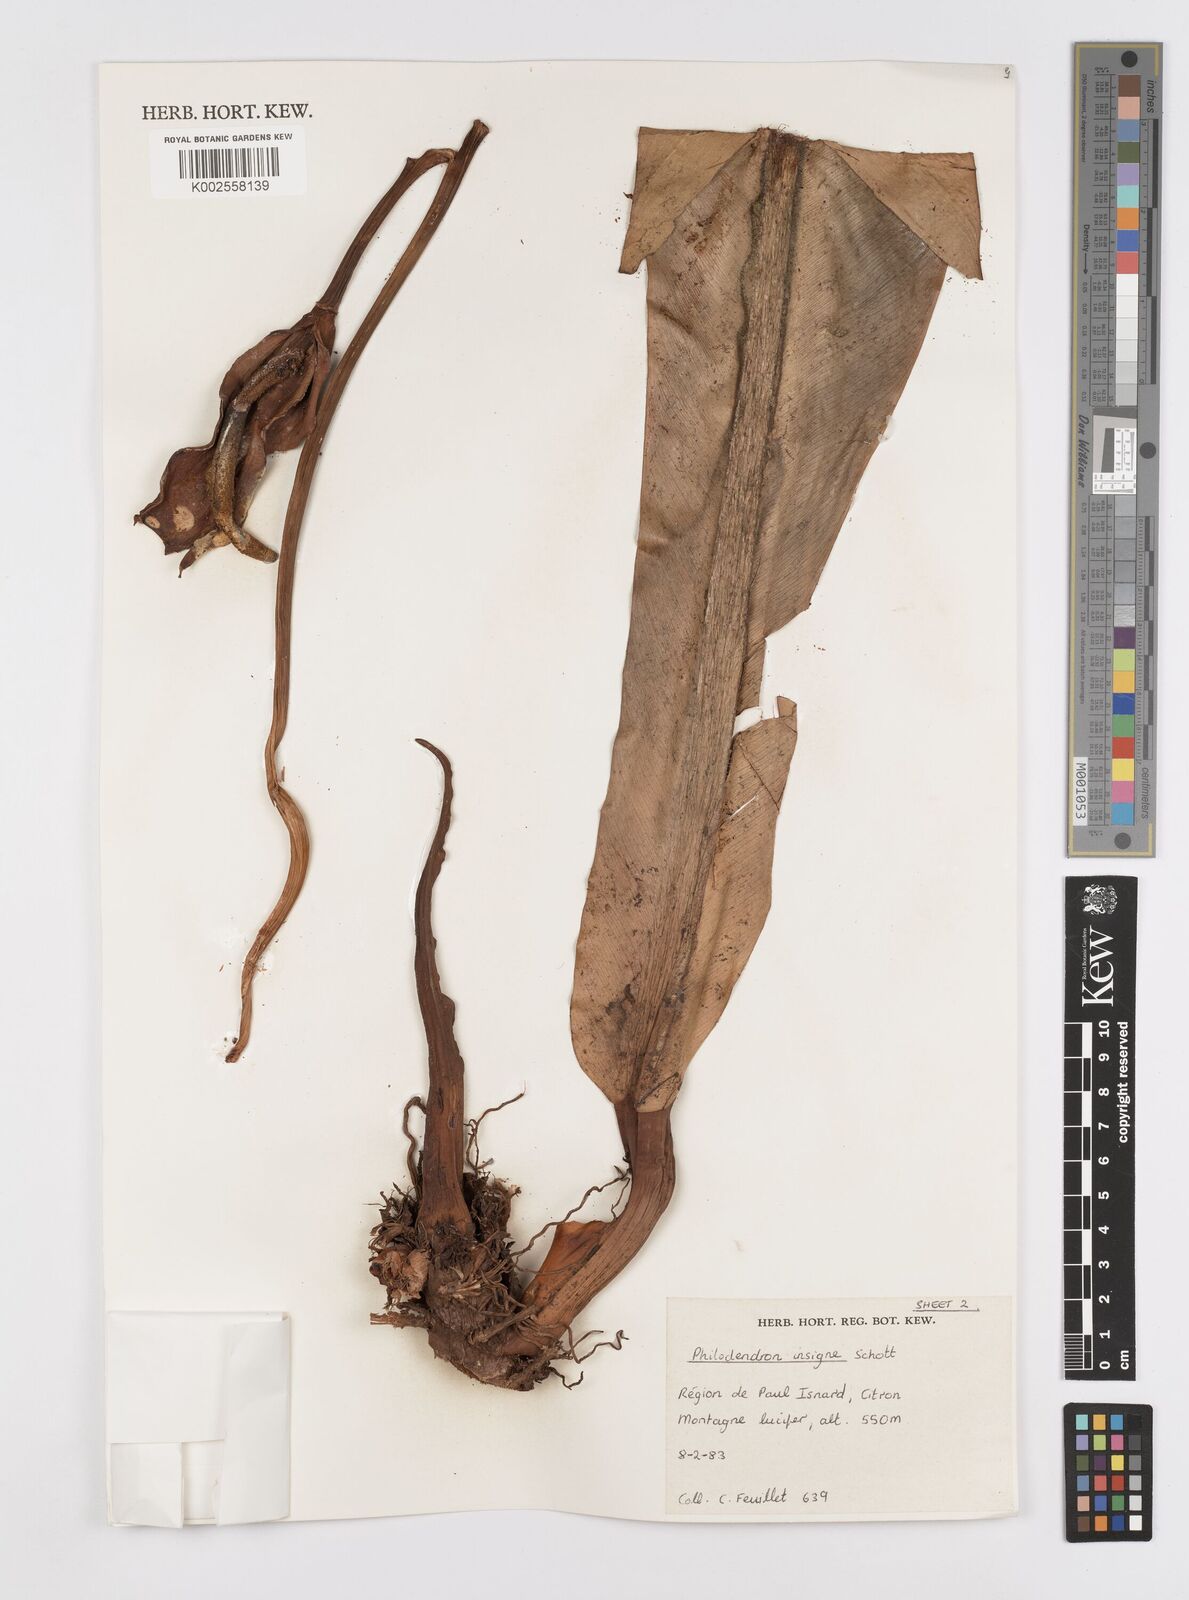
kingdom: Plantae
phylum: Tracheophyta
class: Liliopsida
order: Alismatales
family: Araceae
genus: Philodendron
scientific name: Philodendron insigne
